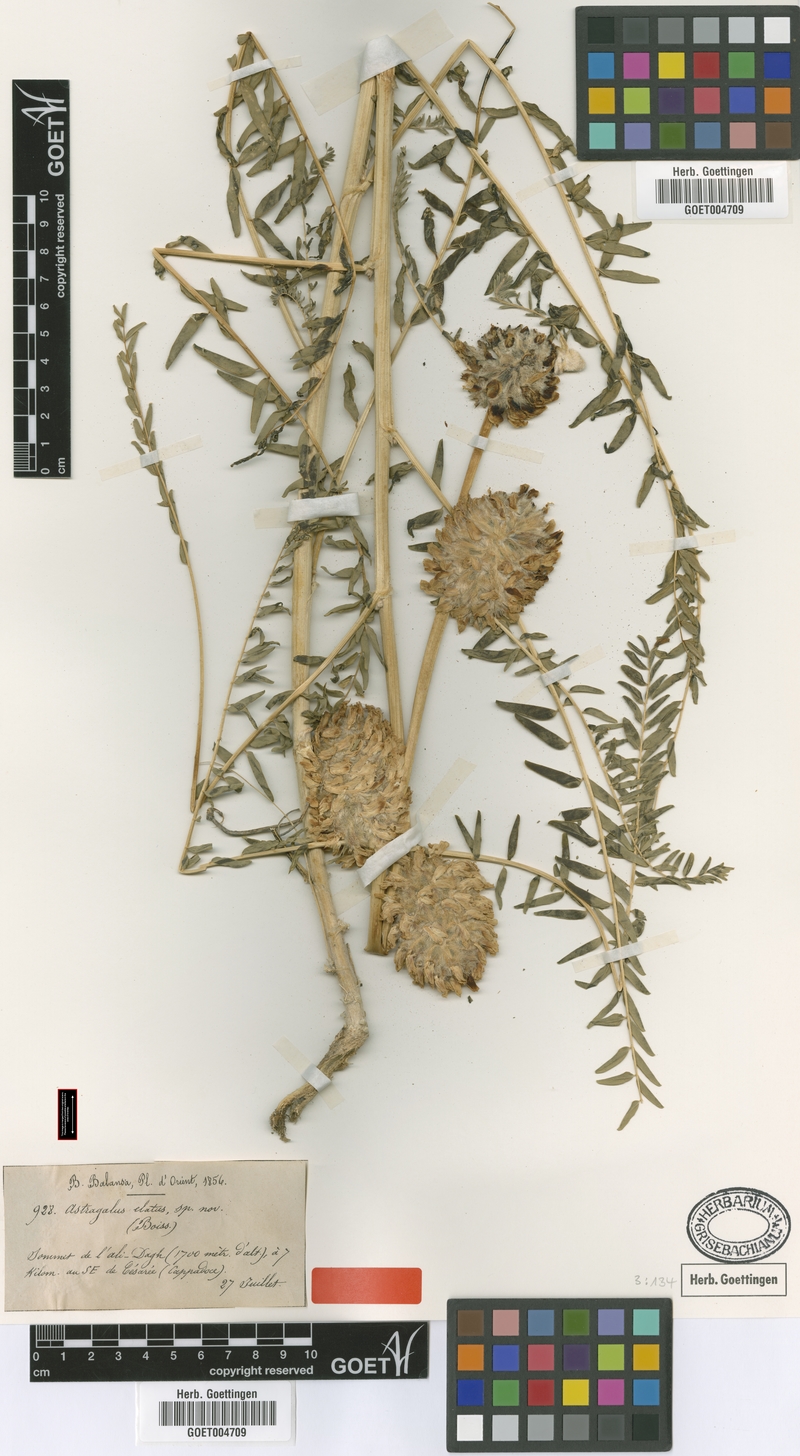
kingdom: Plantae
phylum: Tracheophyta
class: Magnoliopsida
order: Fabales
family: Fabaceae
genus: Astragalus
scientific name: Astragalus elatus
